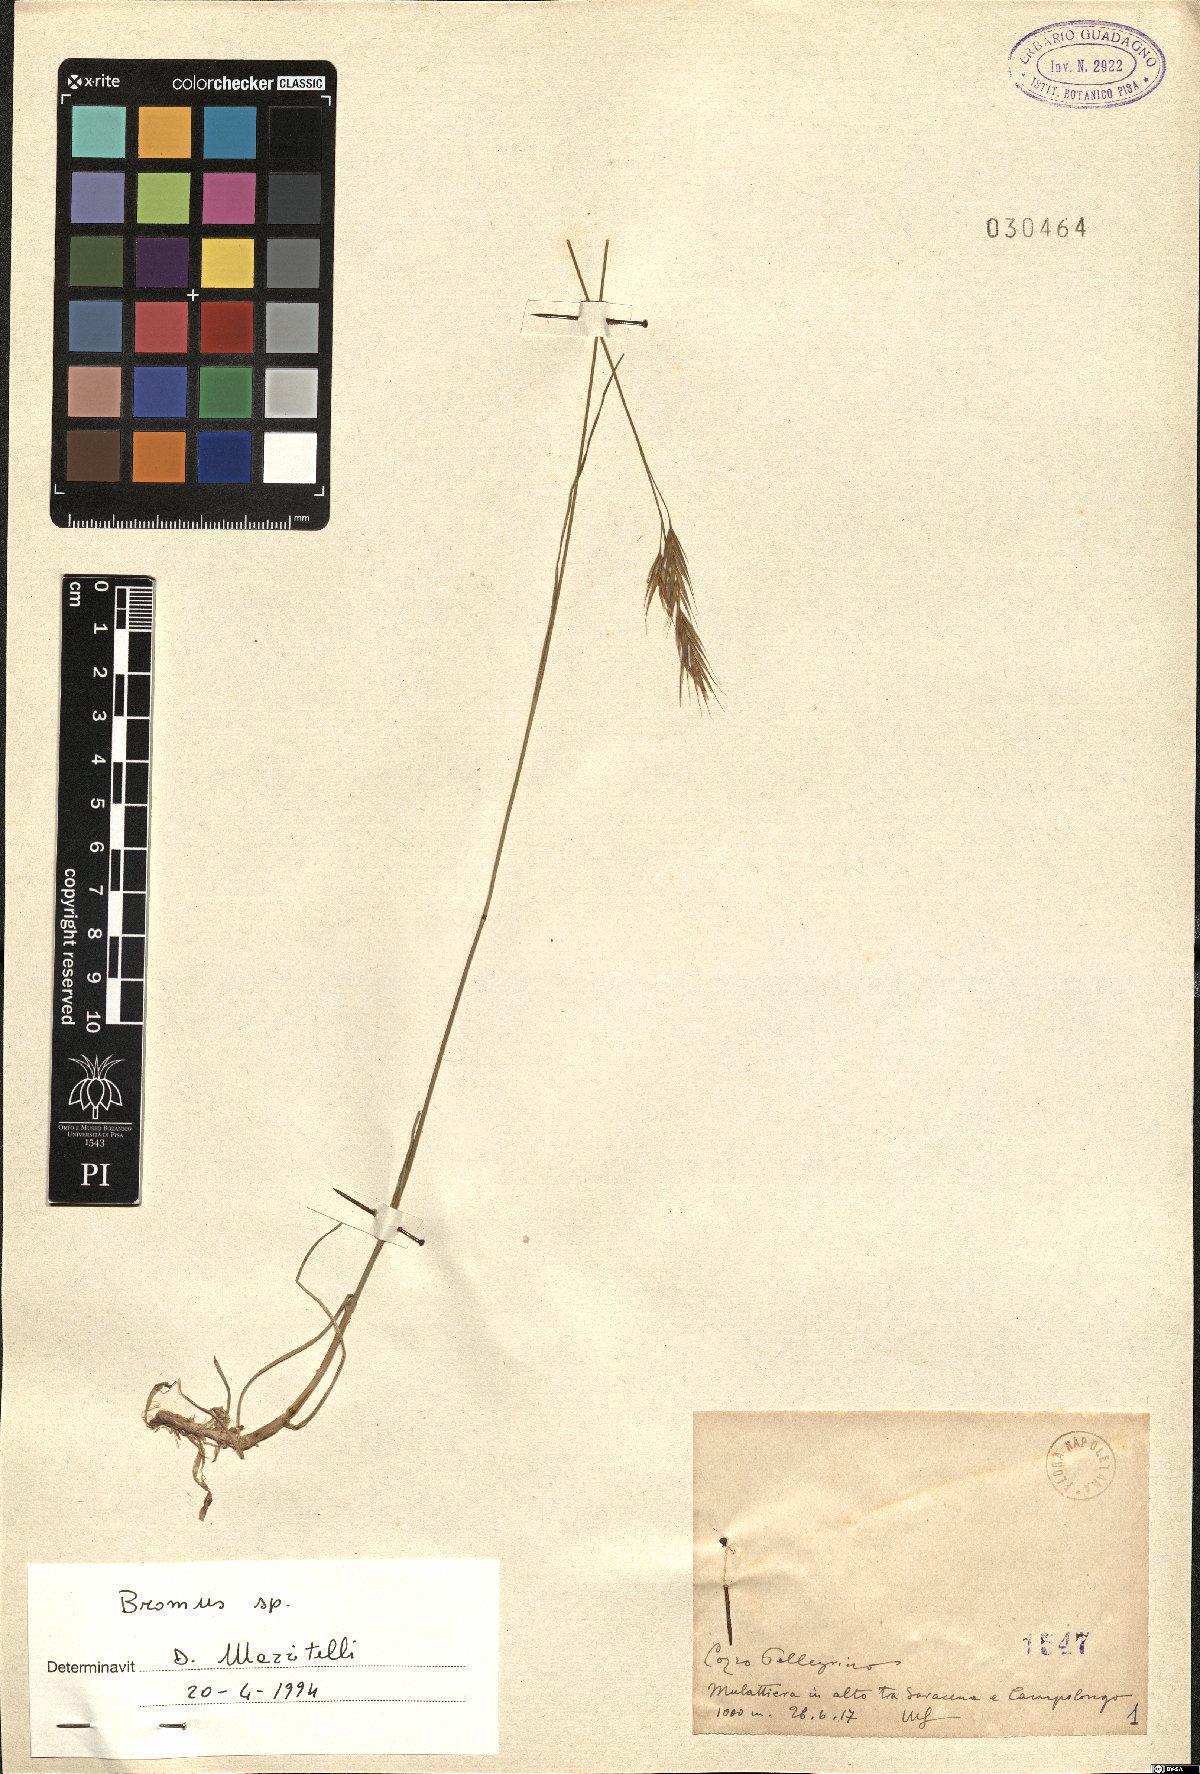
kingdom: Plantae
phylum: Tracheophyta
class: Liliopsida
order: Poales
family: Poaceae
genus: Bromus
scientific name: Bromus
